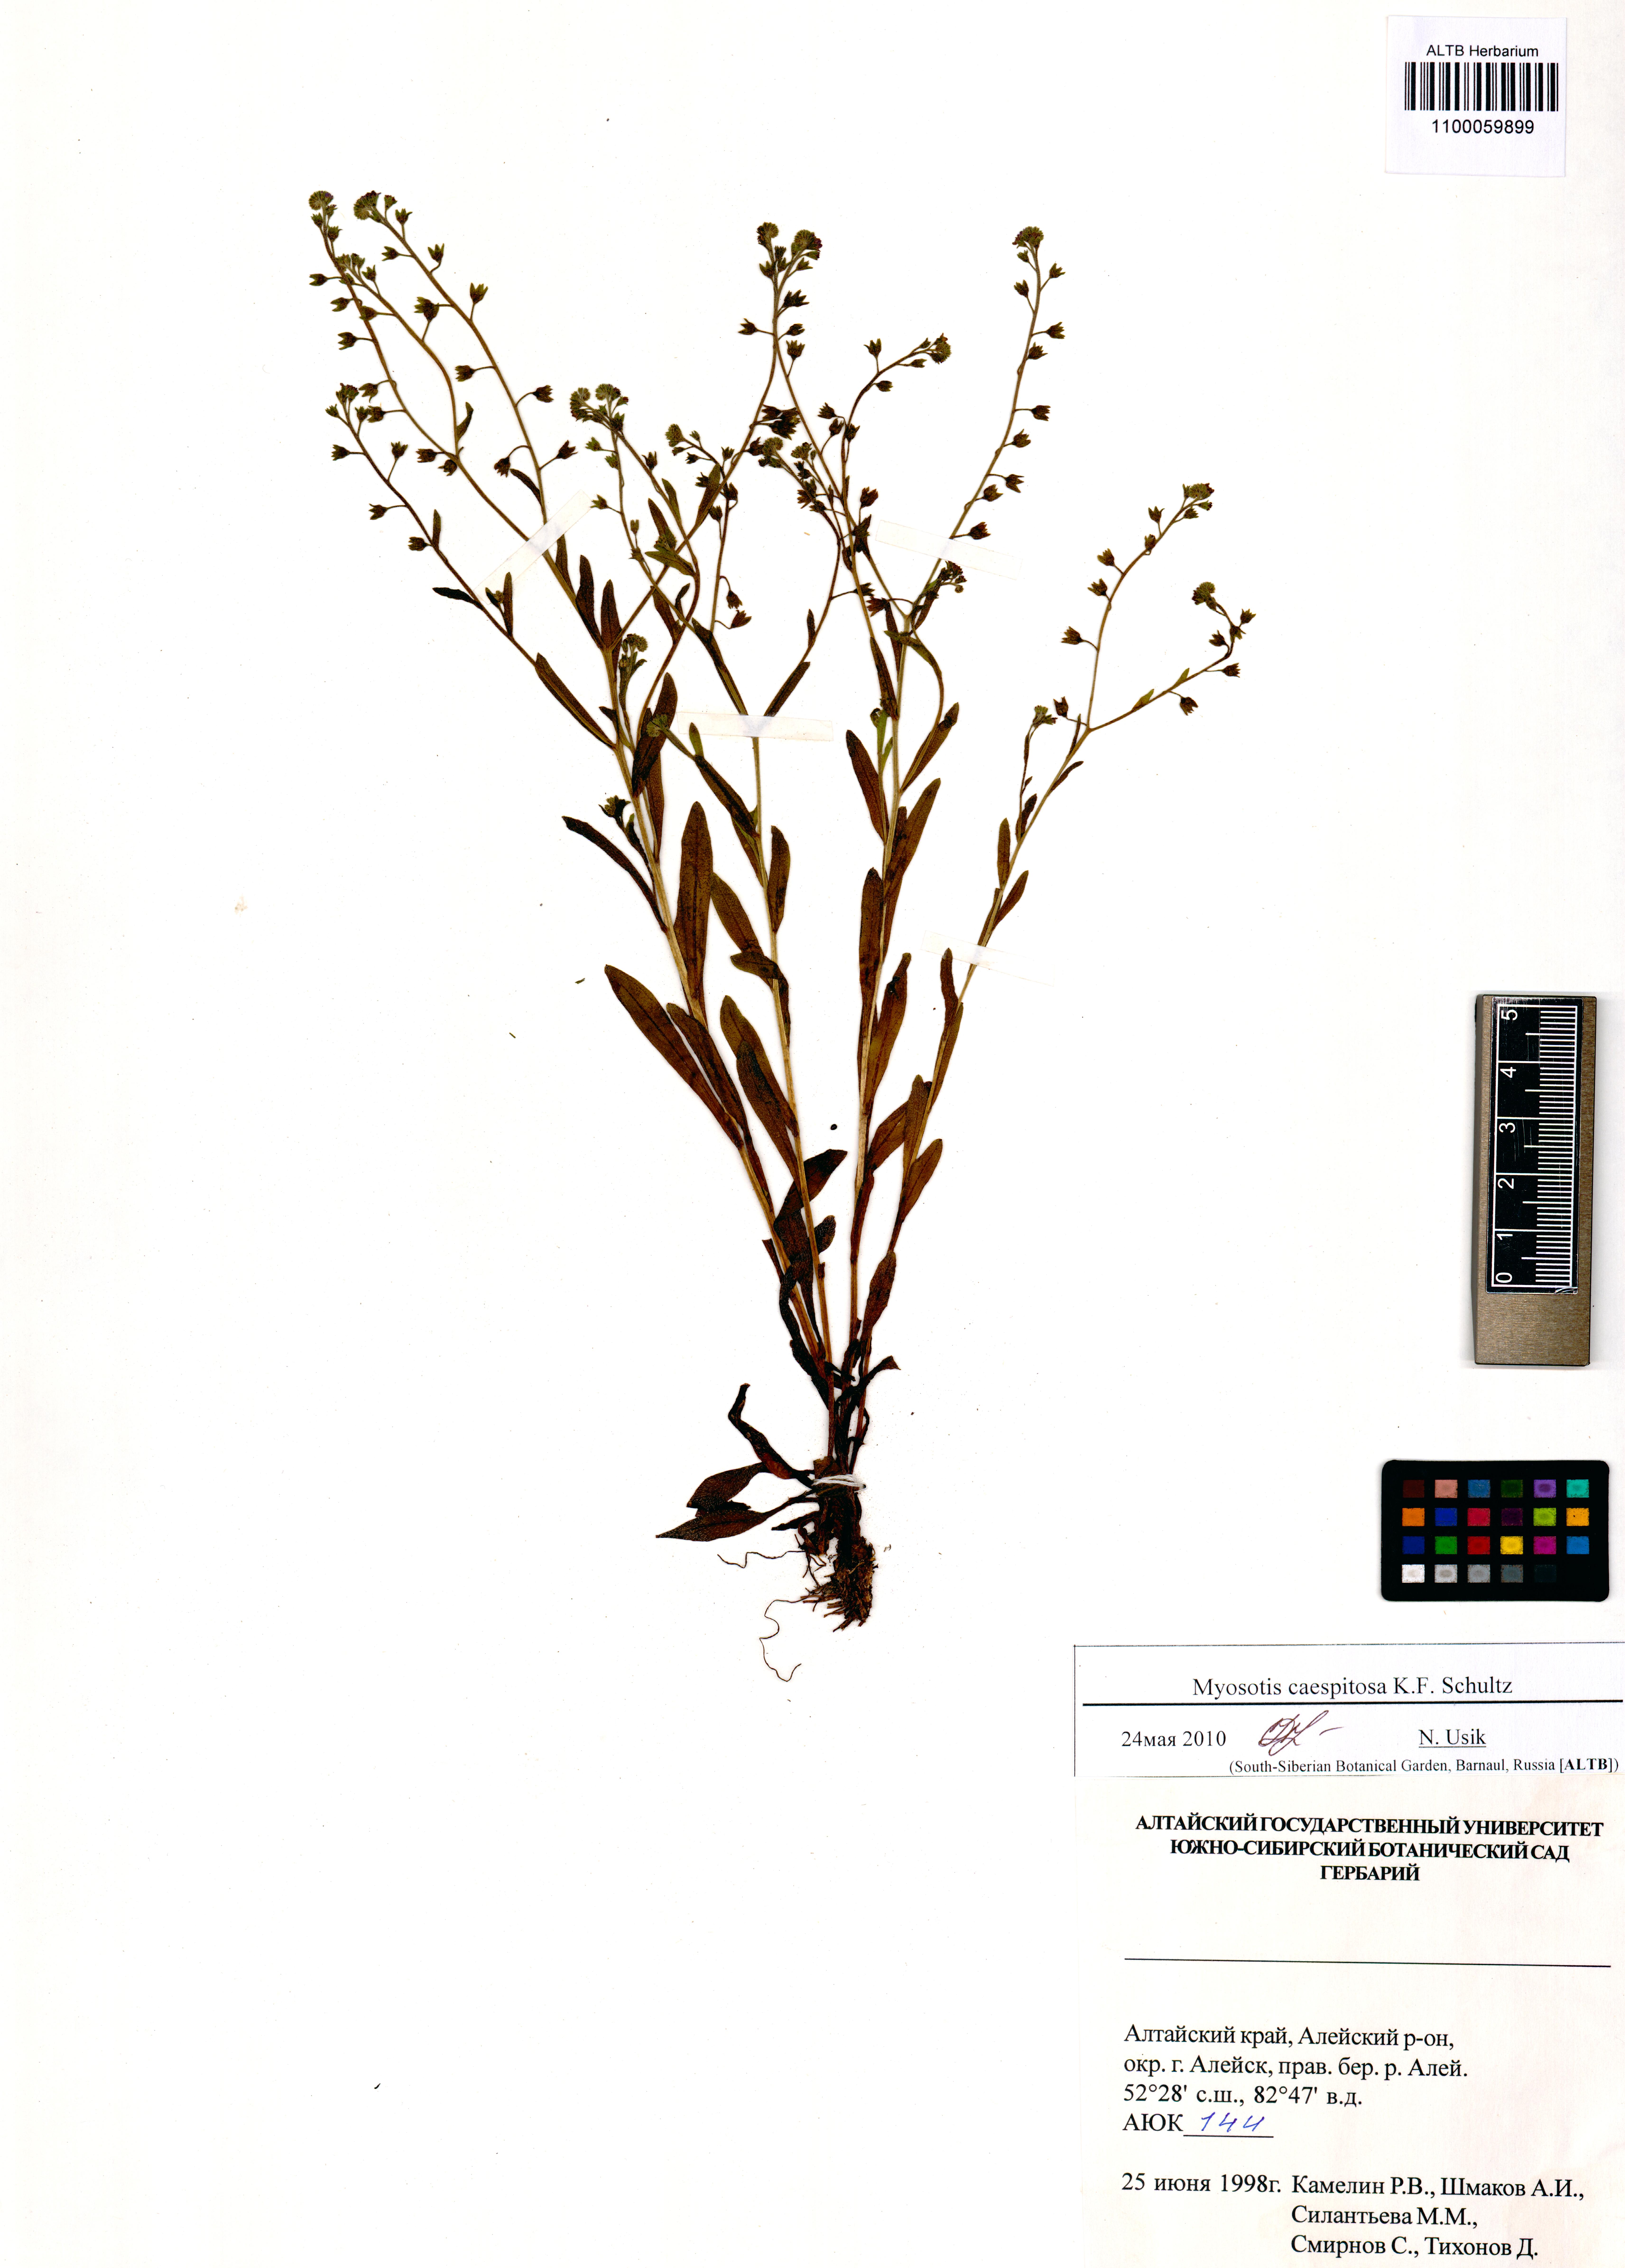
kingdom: Plantae
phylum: Tracheophyta
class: Magnoliopsida
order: Boraginales
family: Boraginaceae
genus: Myosotis
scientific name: Myosotis laxa
